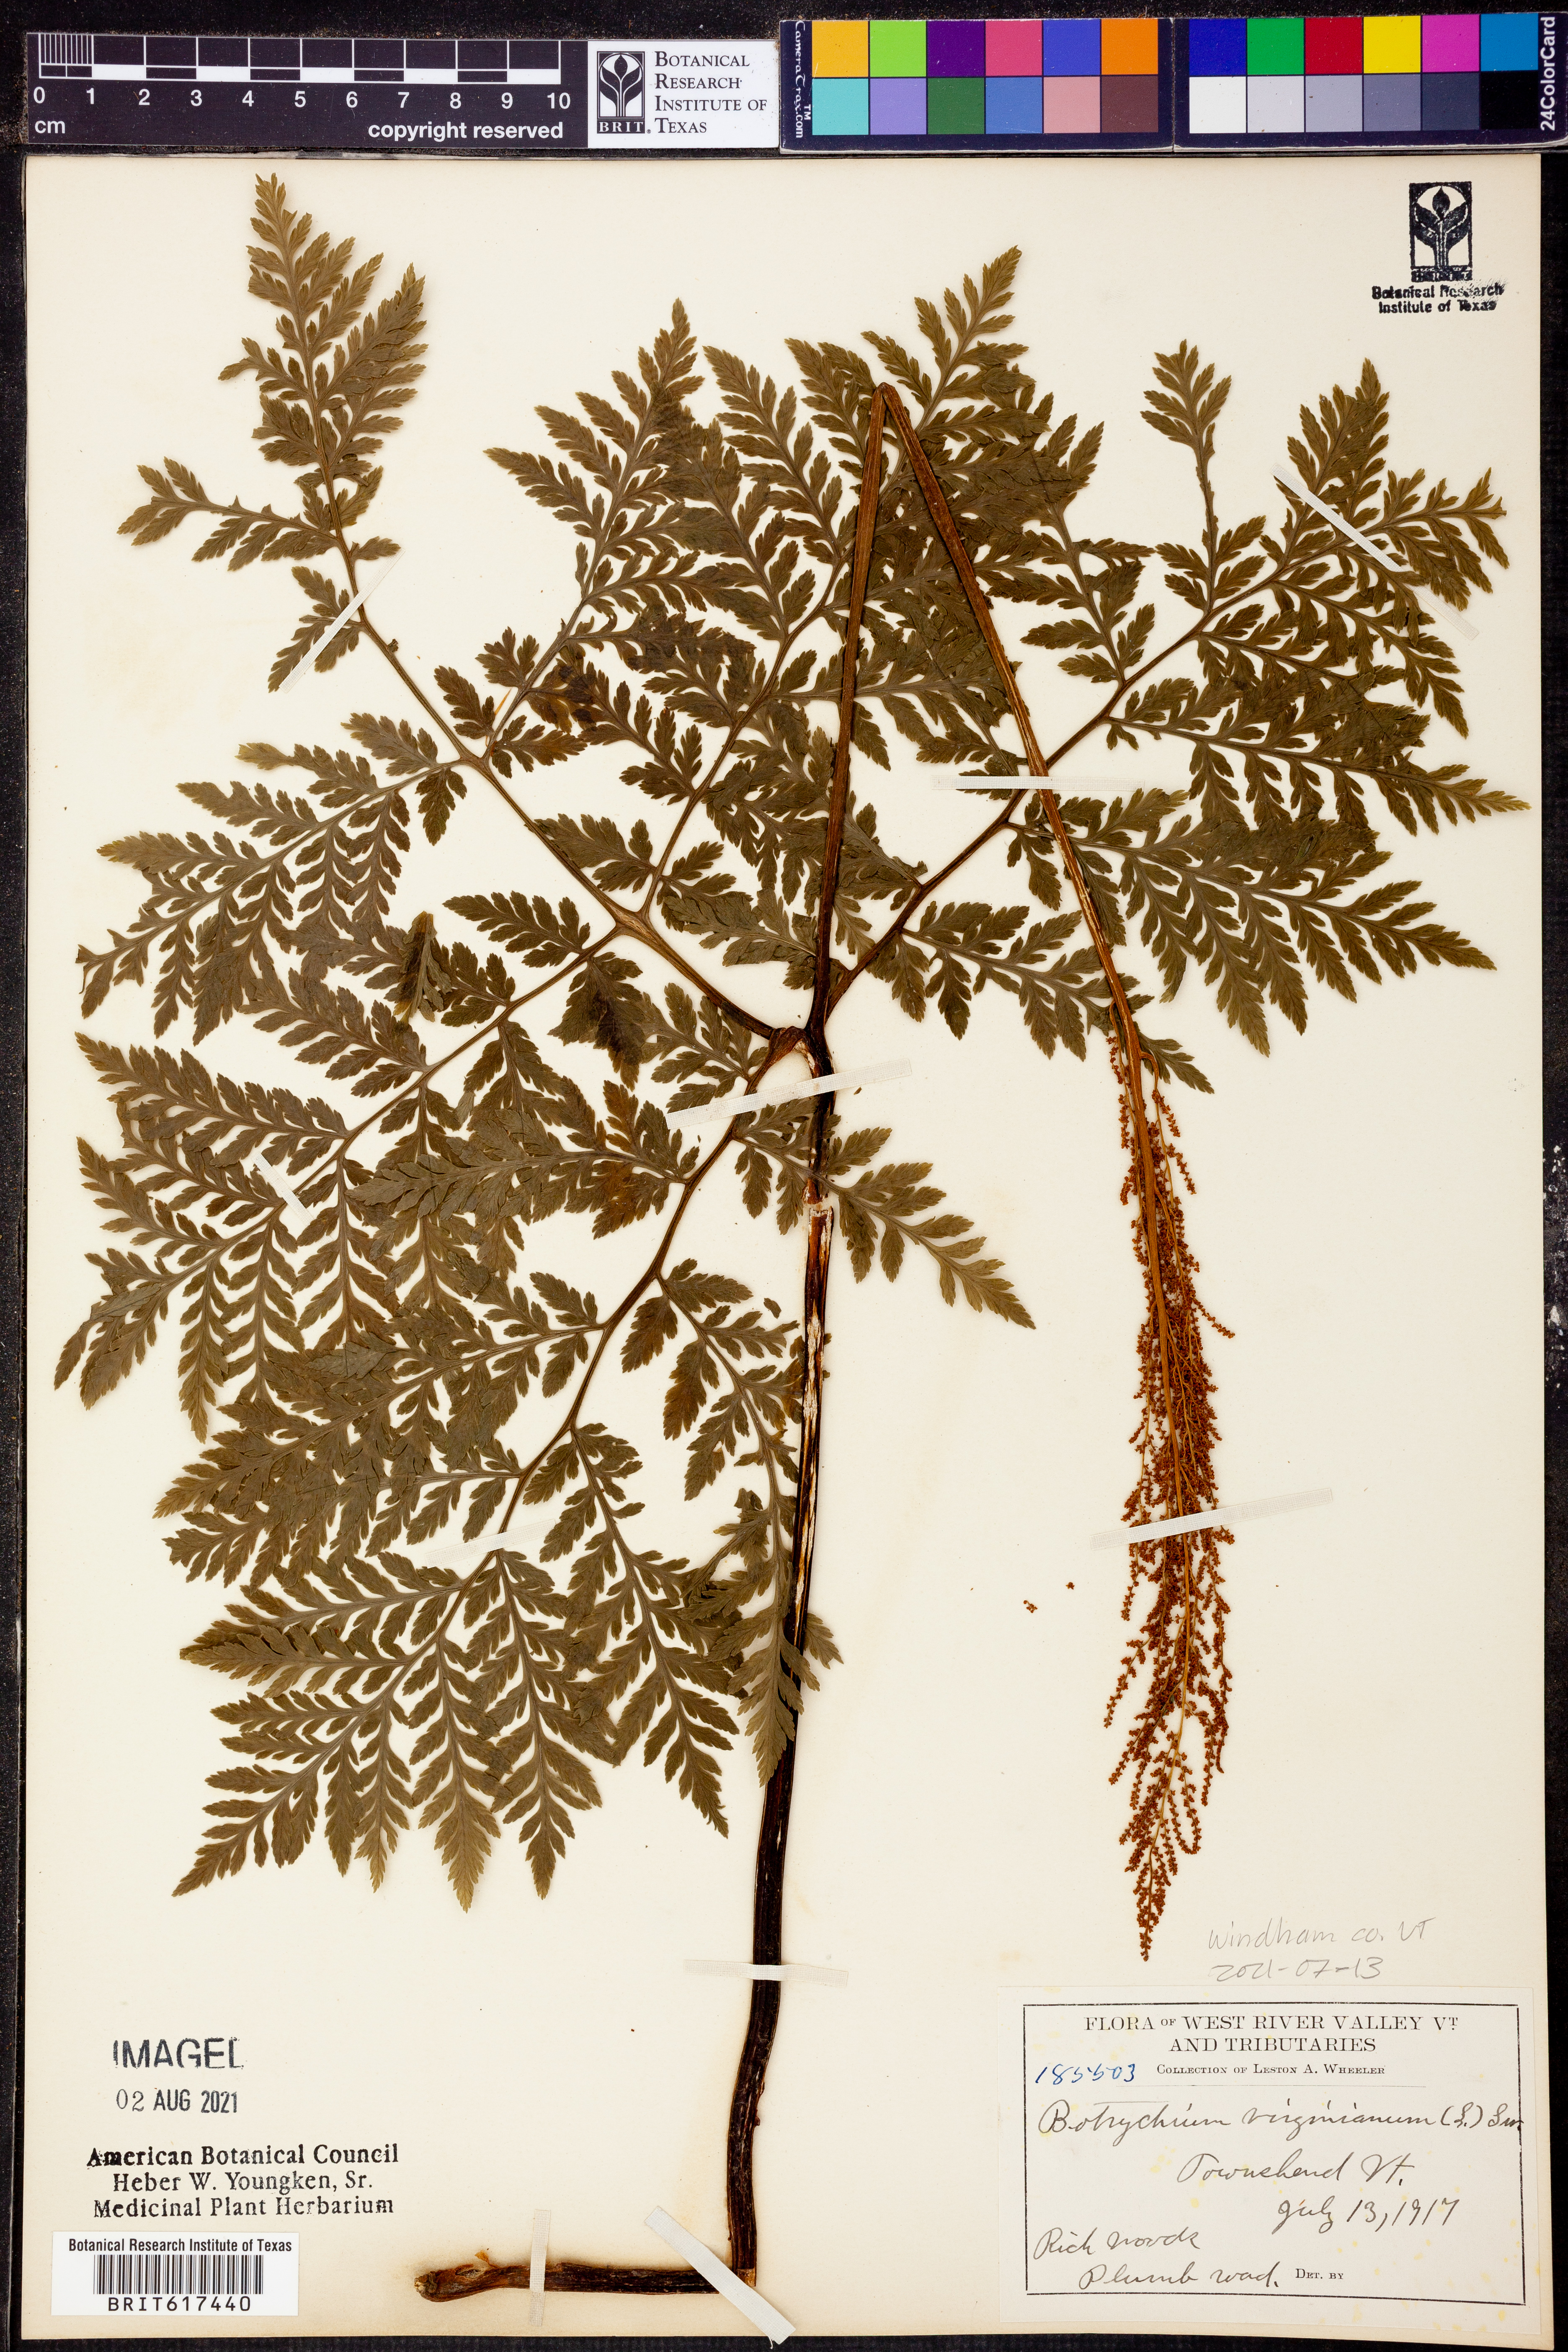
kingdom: Plantae
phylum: Tracheophyta
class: Polypodiopsida
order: Ophioglossales
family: Ophioglossaceae
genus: Botrypus
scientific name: Botrypus virginianus
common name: Common grapefern
